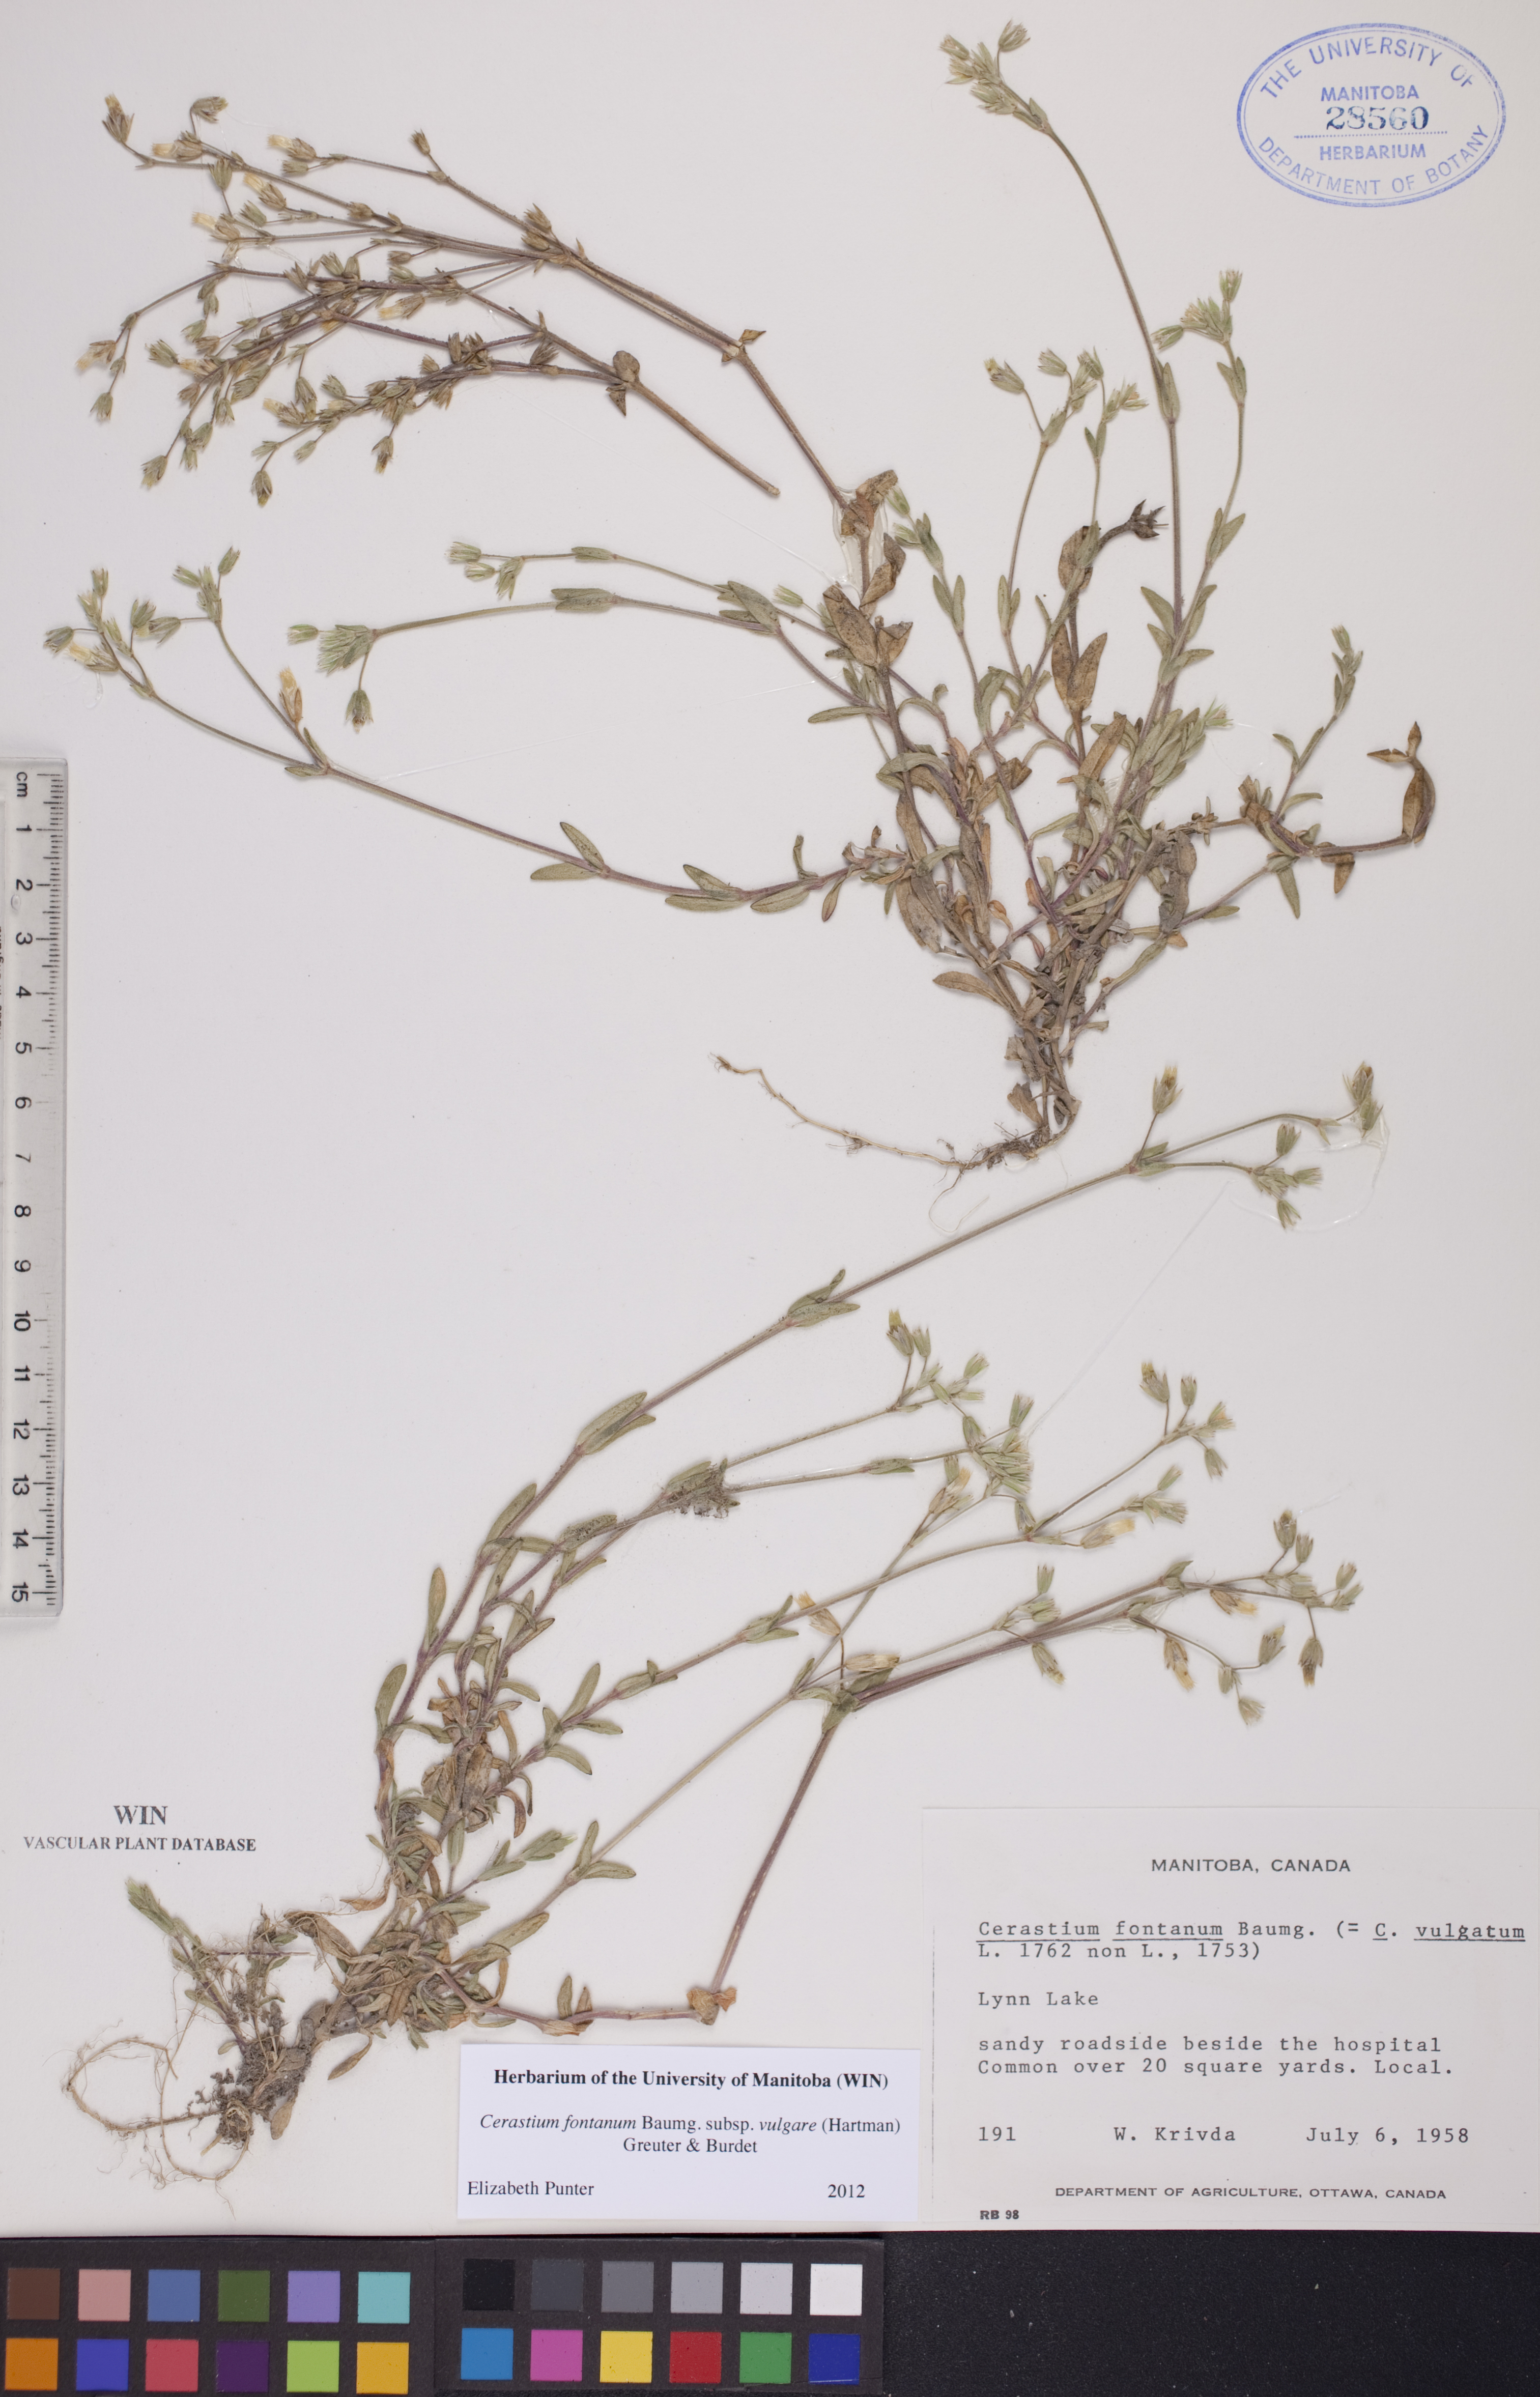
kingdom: Plantae
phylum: Tracheophyta
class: Magnoliopsida
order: Caryophyllales
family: Caryophyllaceae
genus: Cerastium
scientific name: Cerastium holosteoides
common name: Big chickweed
